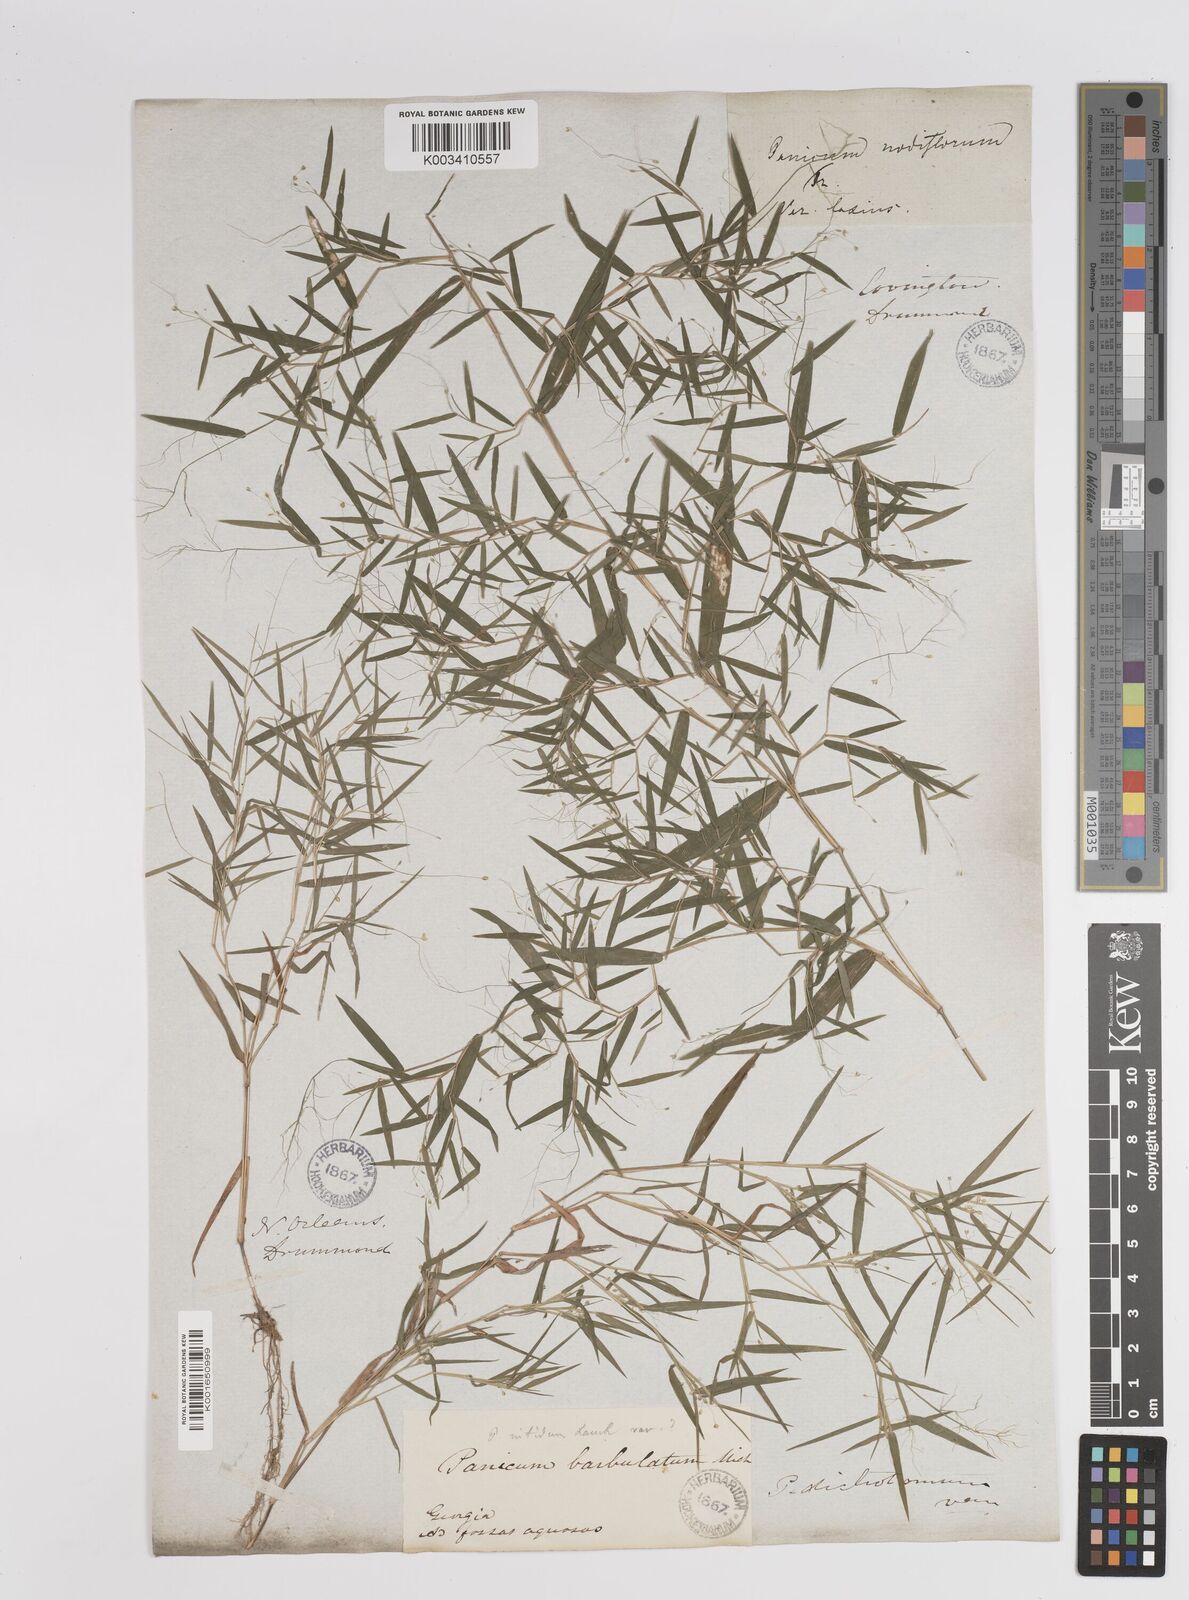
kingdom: Plantae
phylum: Tracheophyta
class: Liliopsida
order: Poales
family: Poaceae
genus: Dichanthelium
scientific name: Dichanthelium dichotomum
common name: Cypress panicgrass
